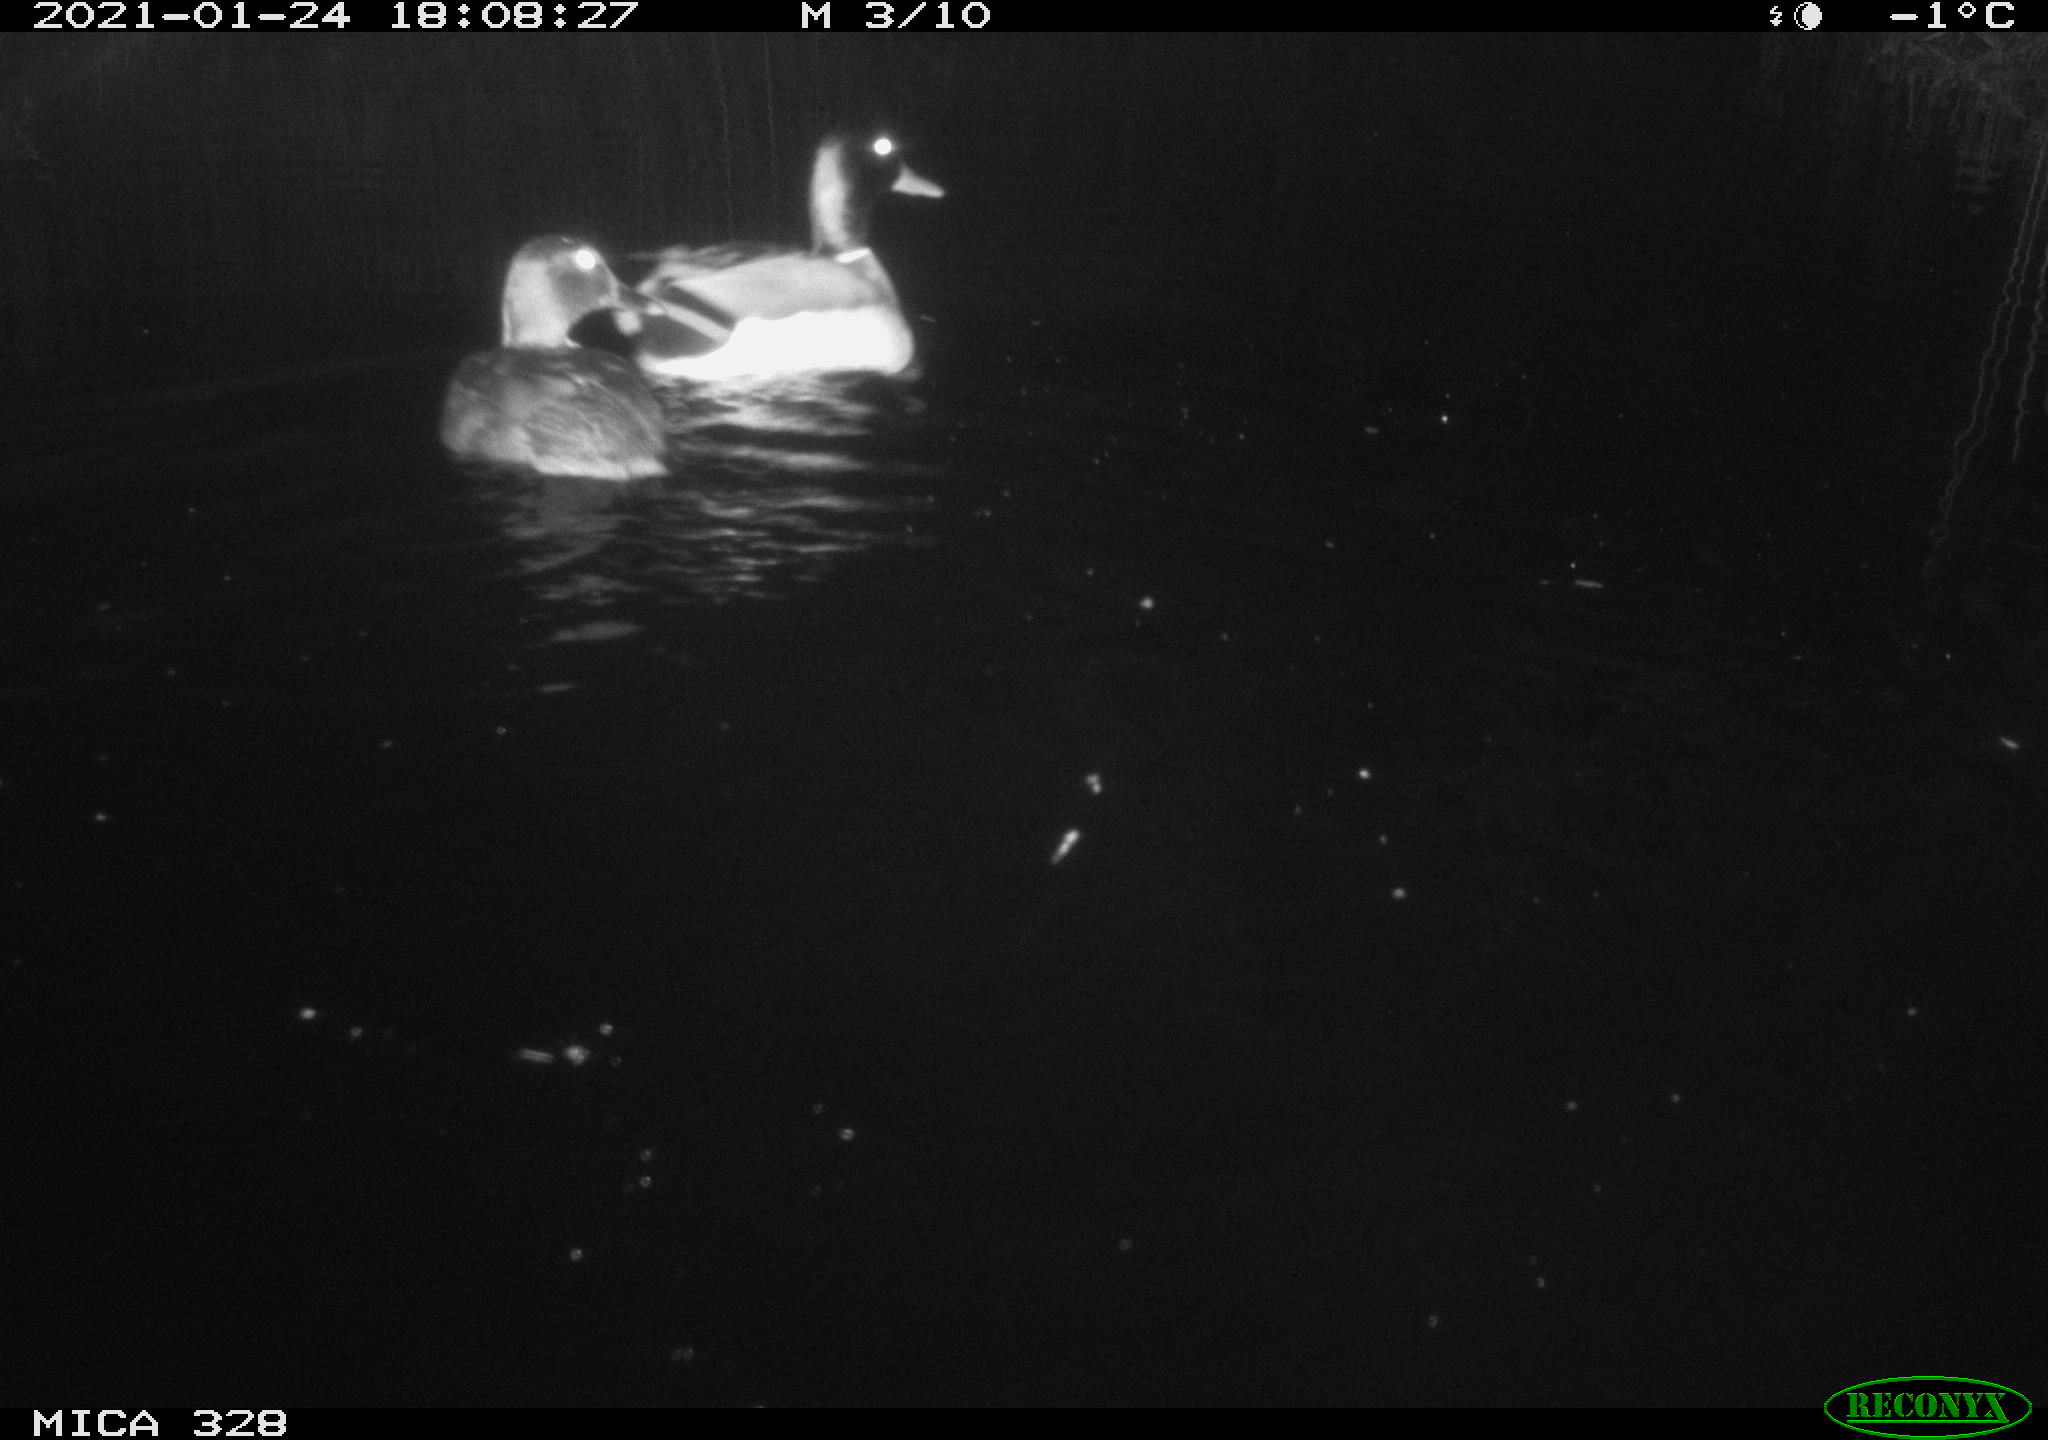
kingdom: Animalia
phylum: Chordata
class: Aves
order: Anseriformes
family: Anatidae
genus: Anas
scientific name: Anas platyrhynchos
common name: Mallard
